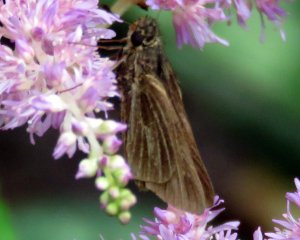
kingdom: Animalia
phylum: Arthropoda
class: Insecta
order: Lepidoptera
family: Hesperiidae
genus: Panoquina
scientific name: Panoquina panoquin
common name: Salt Marsh Skipper
